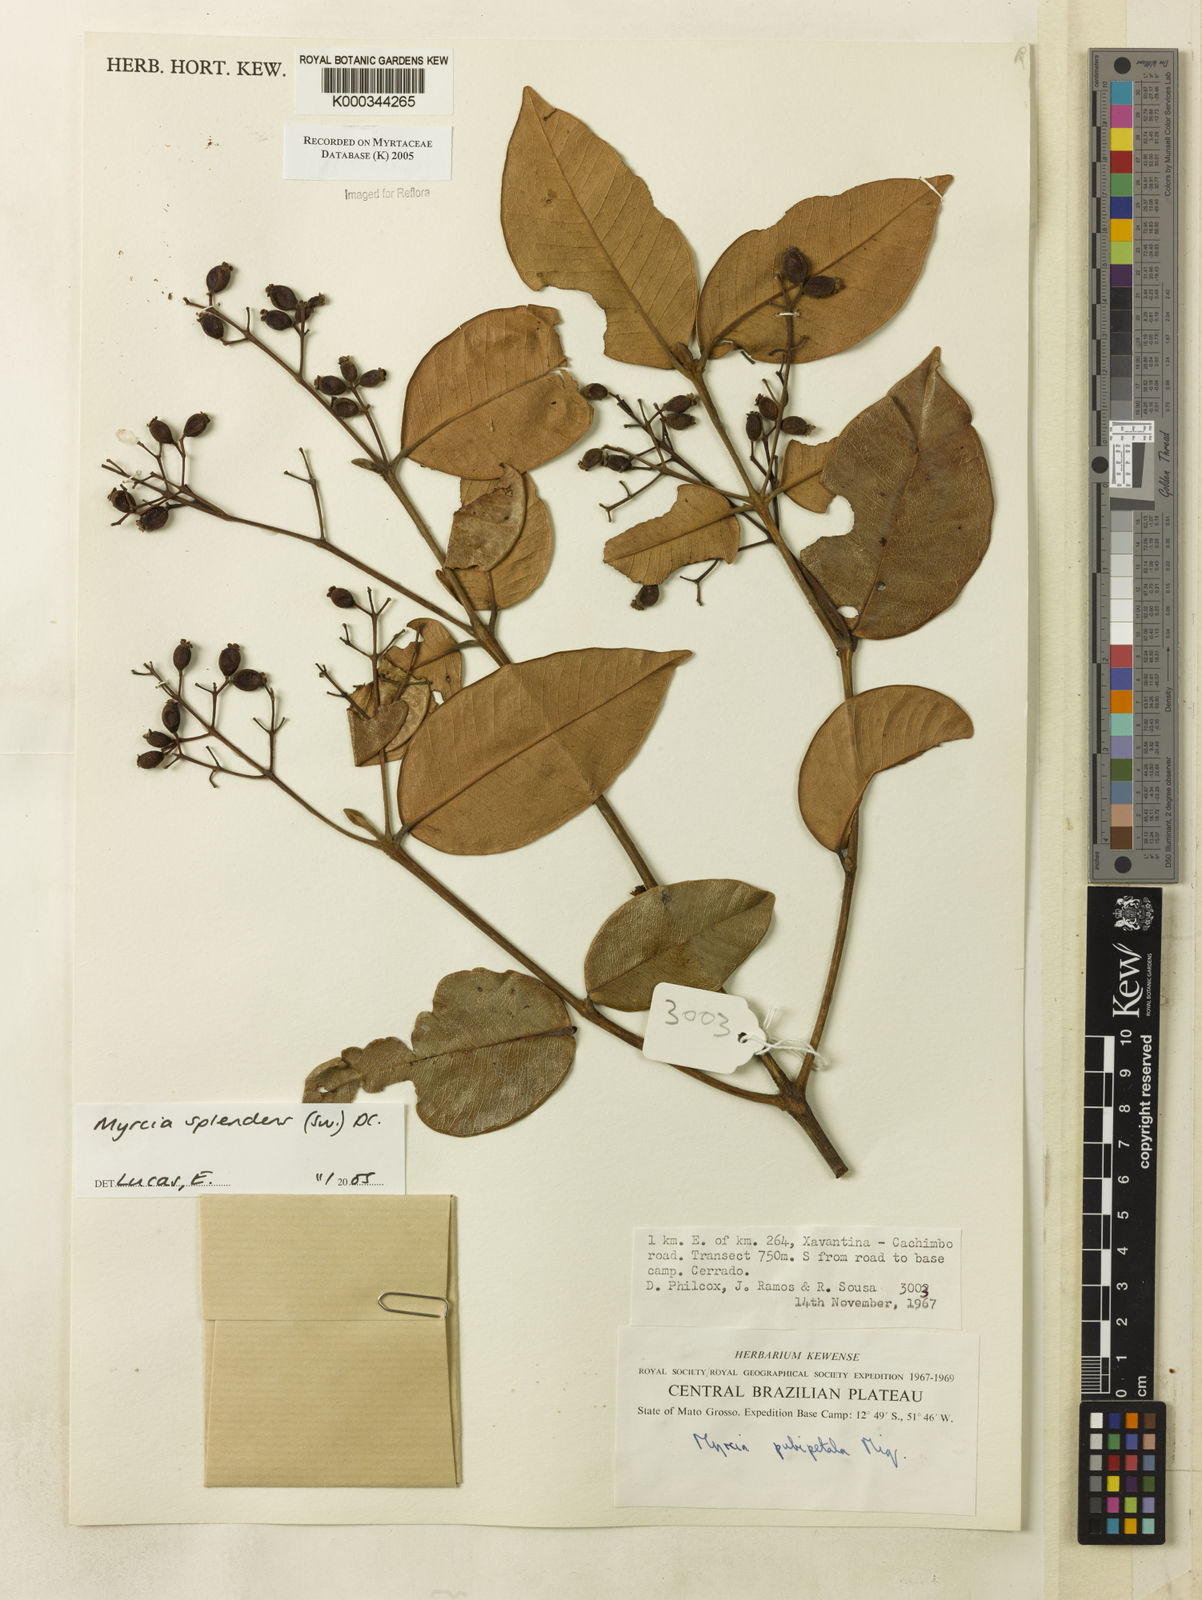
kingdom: Plantae
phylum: Tracheophyta
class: Magnoliopsida
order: Myrtales
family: Myrtaceae
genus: Myrcia
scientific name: Myrcia splendens
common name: Surinam cherry
